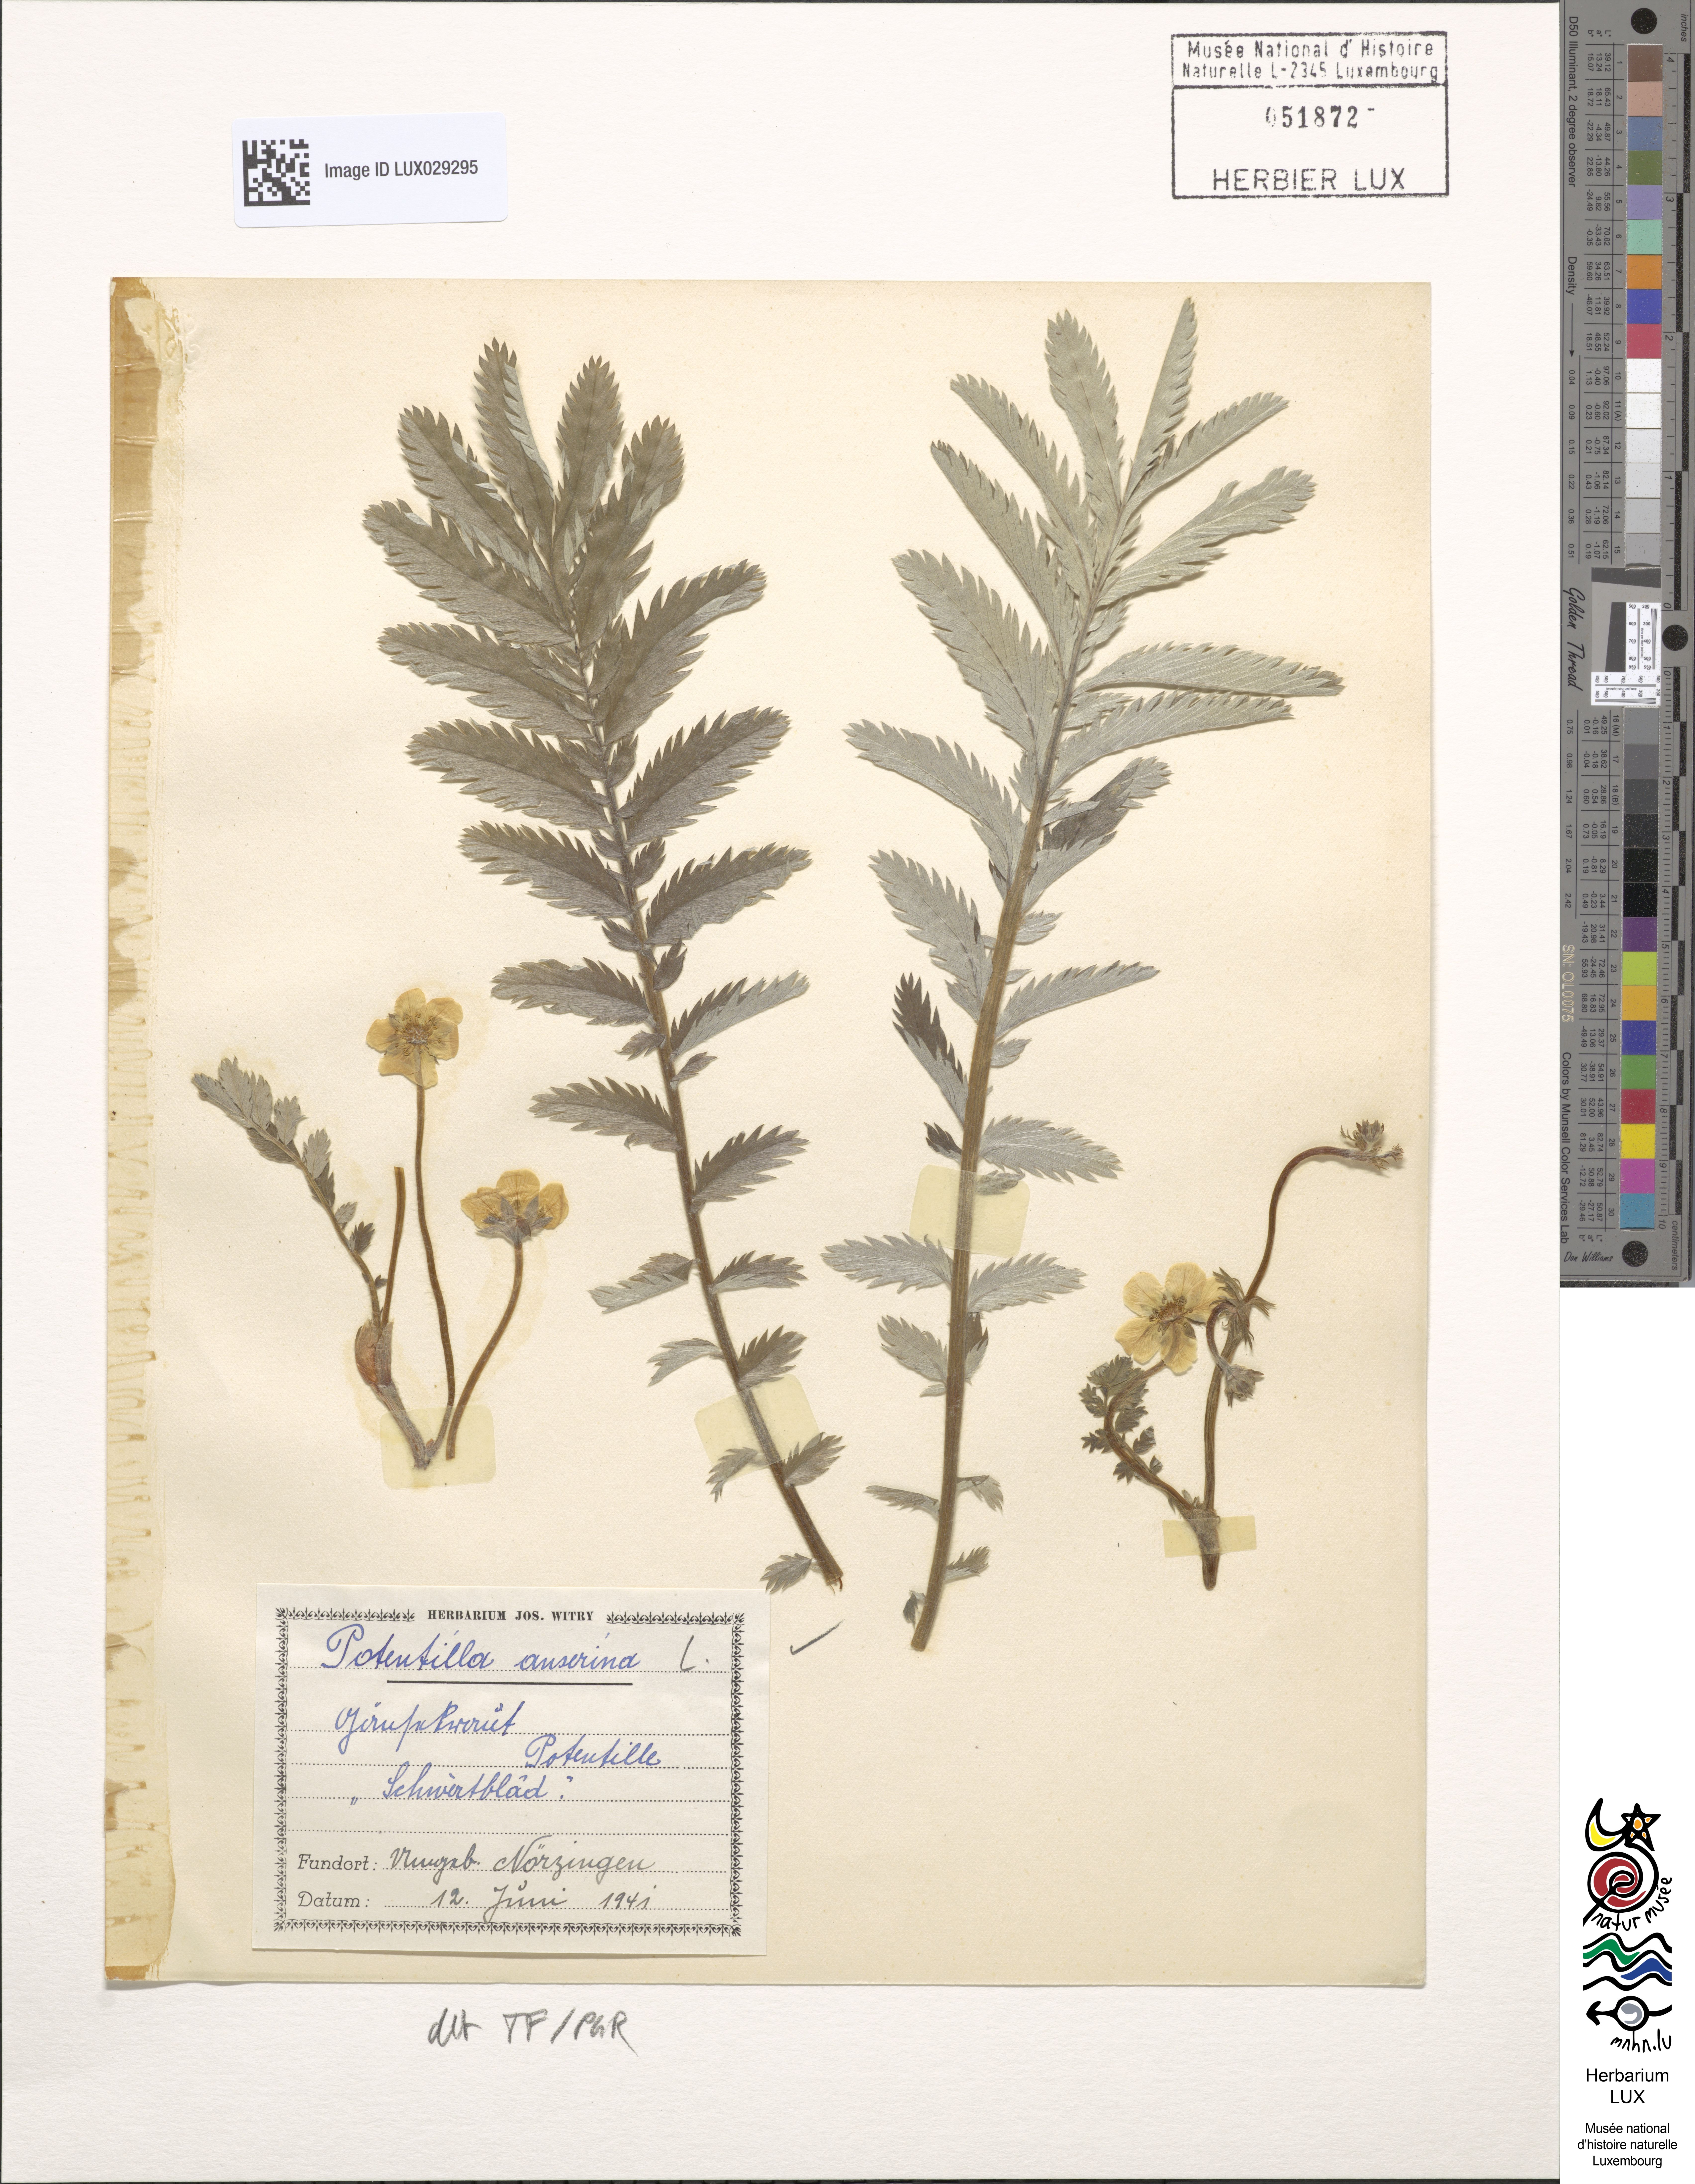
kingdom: Plantae
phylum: Tracheophyta
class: Magnoliopsida
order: Rosales
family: Rosaceae
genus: Argentina
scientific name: Argentina anserina
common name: Common silverweed
